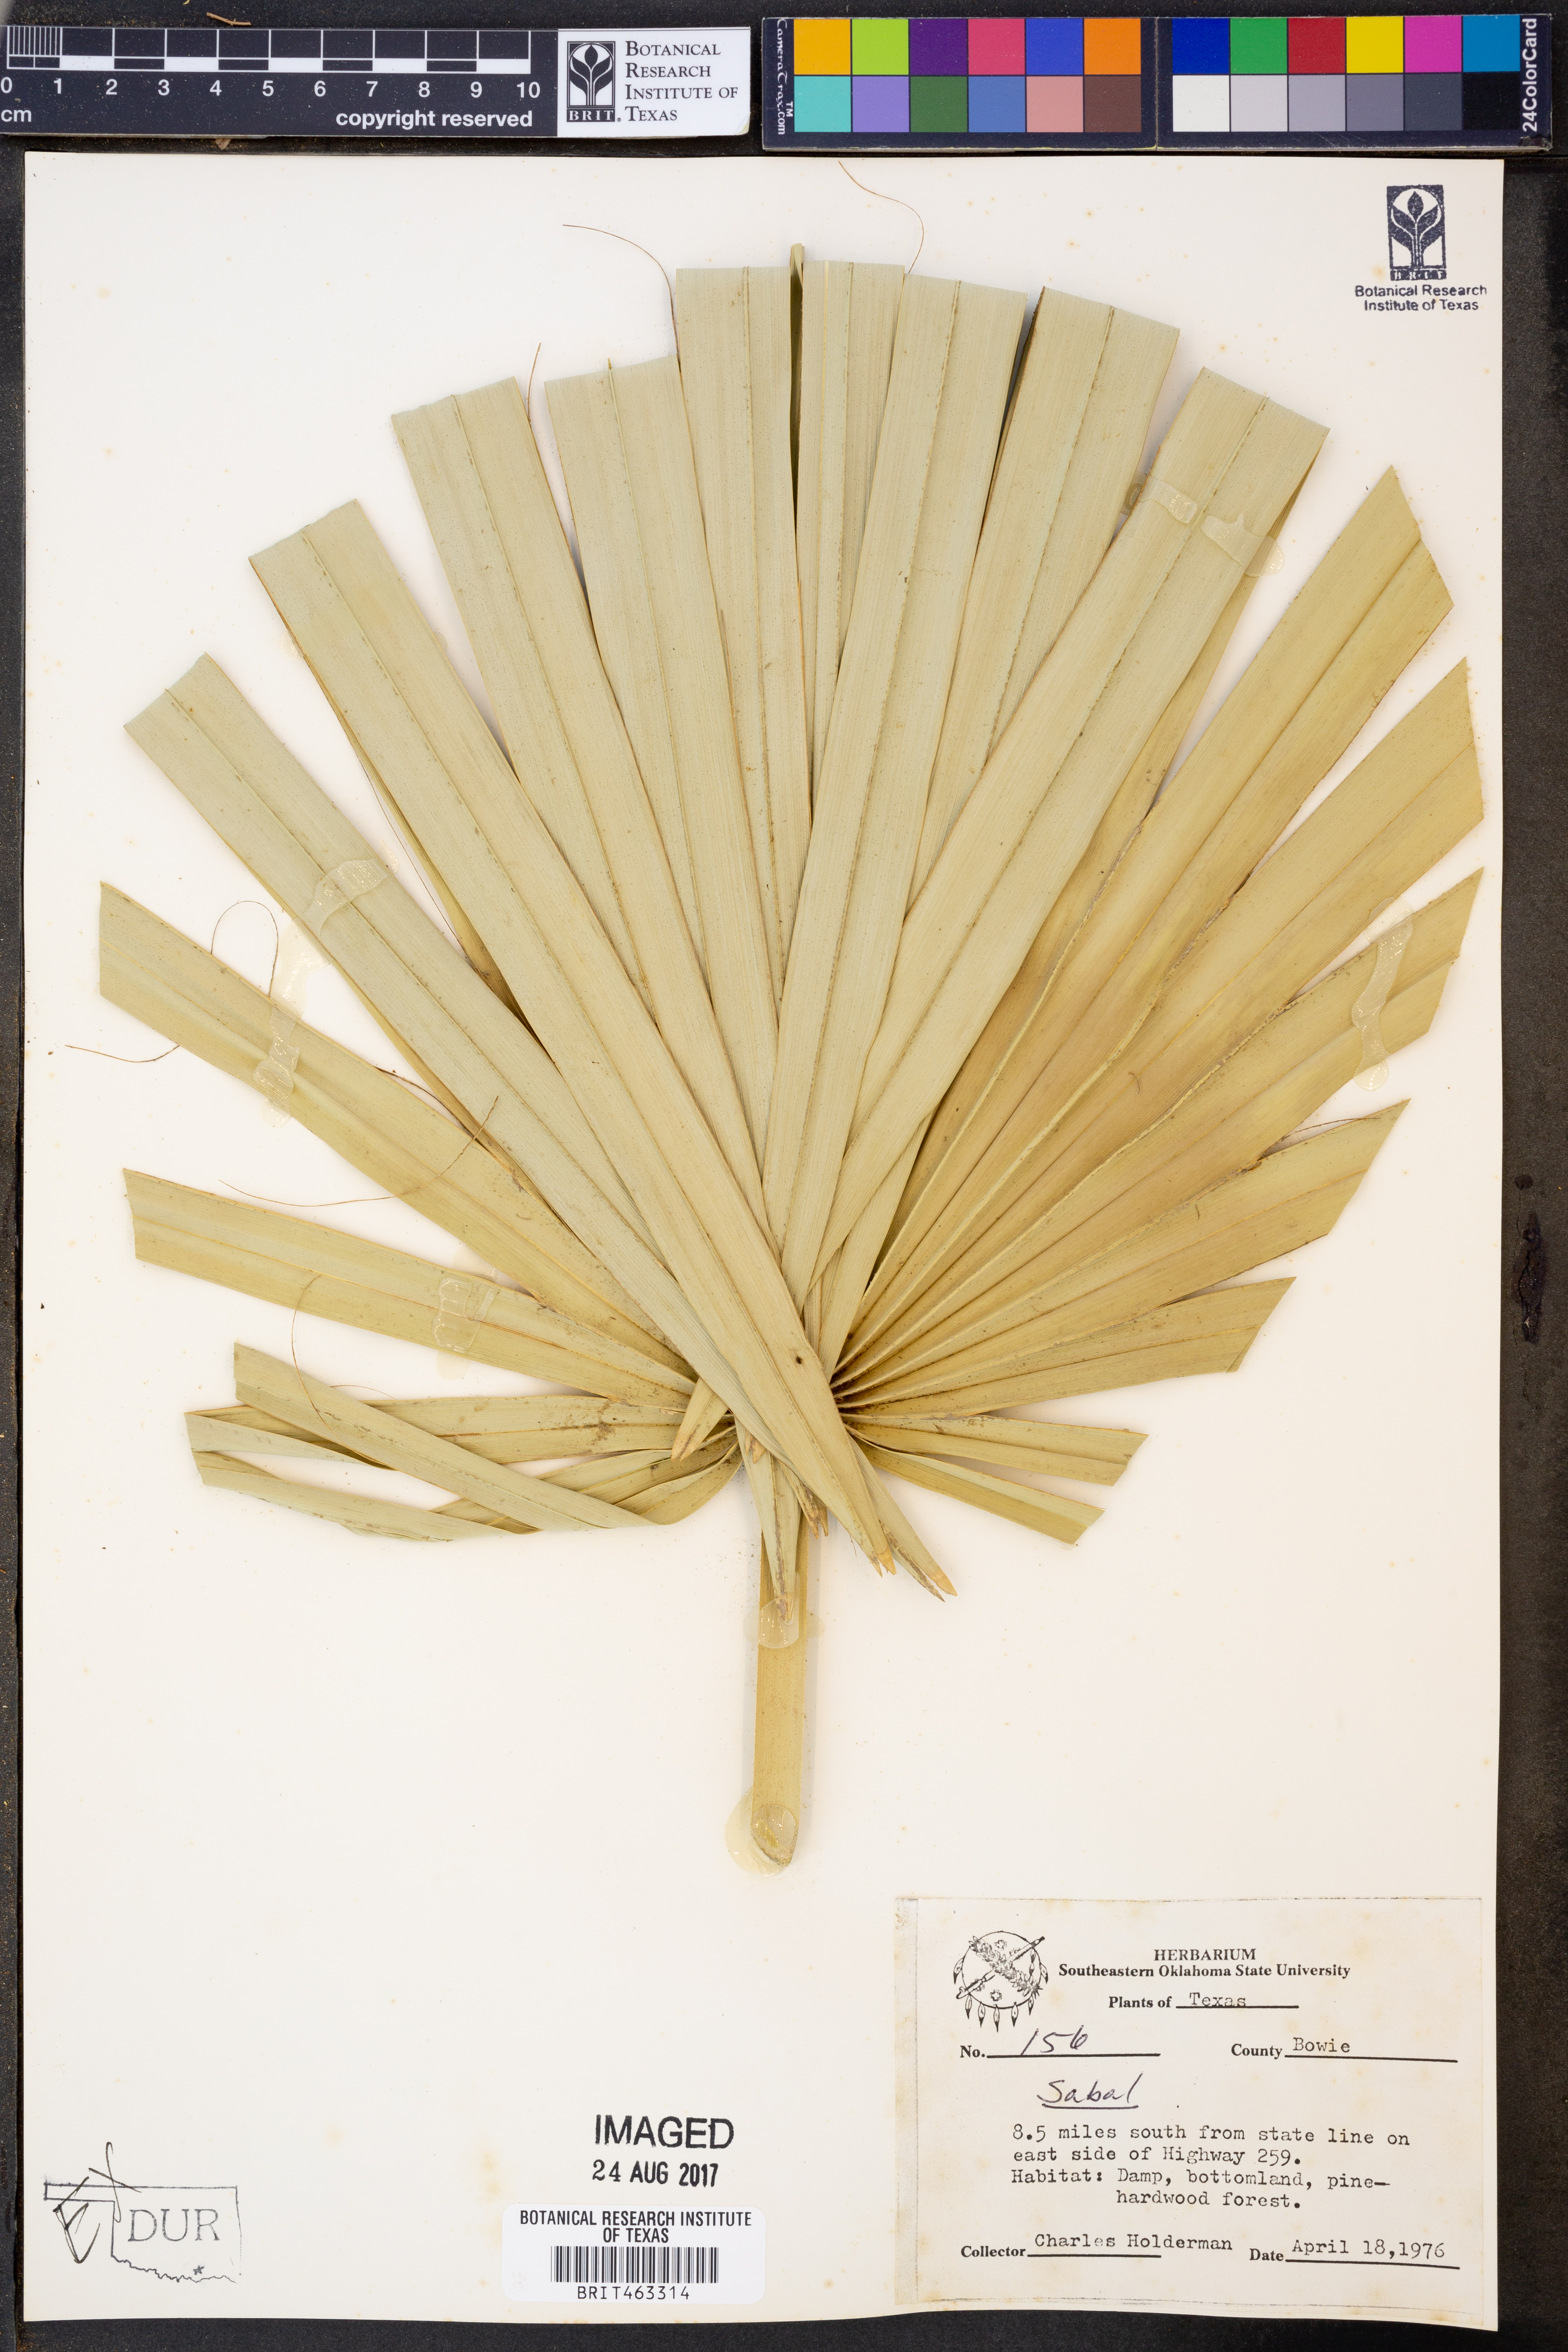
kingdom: Plantae
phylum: Tracheophyta
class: Liliopsida
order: Arecales
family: Arecaceae
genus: Sabal
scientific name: Sabal
